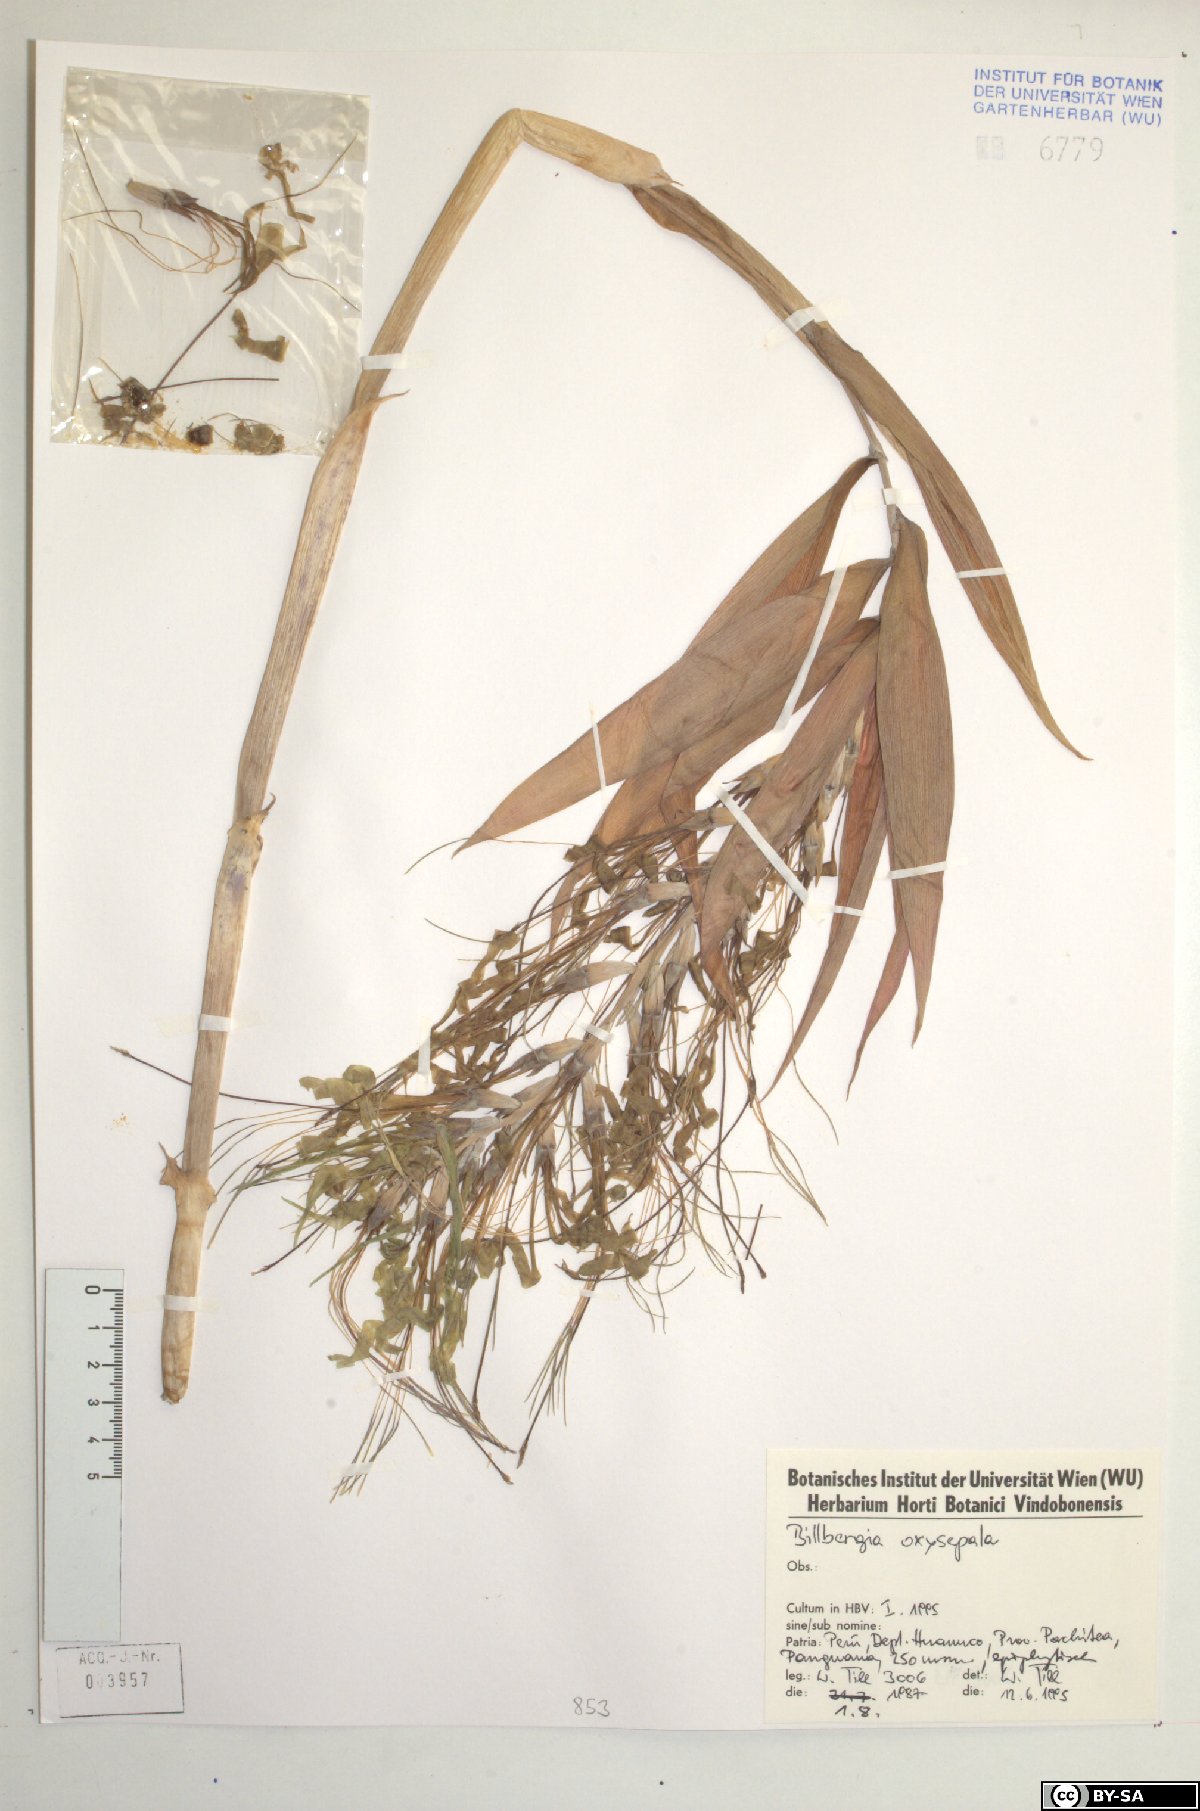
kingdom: Plantae
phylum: Tracheophyta
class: Liliopsida
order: Poales
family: Bromeliaceae
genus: Billbergia
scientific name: Billbergia oxysepala
